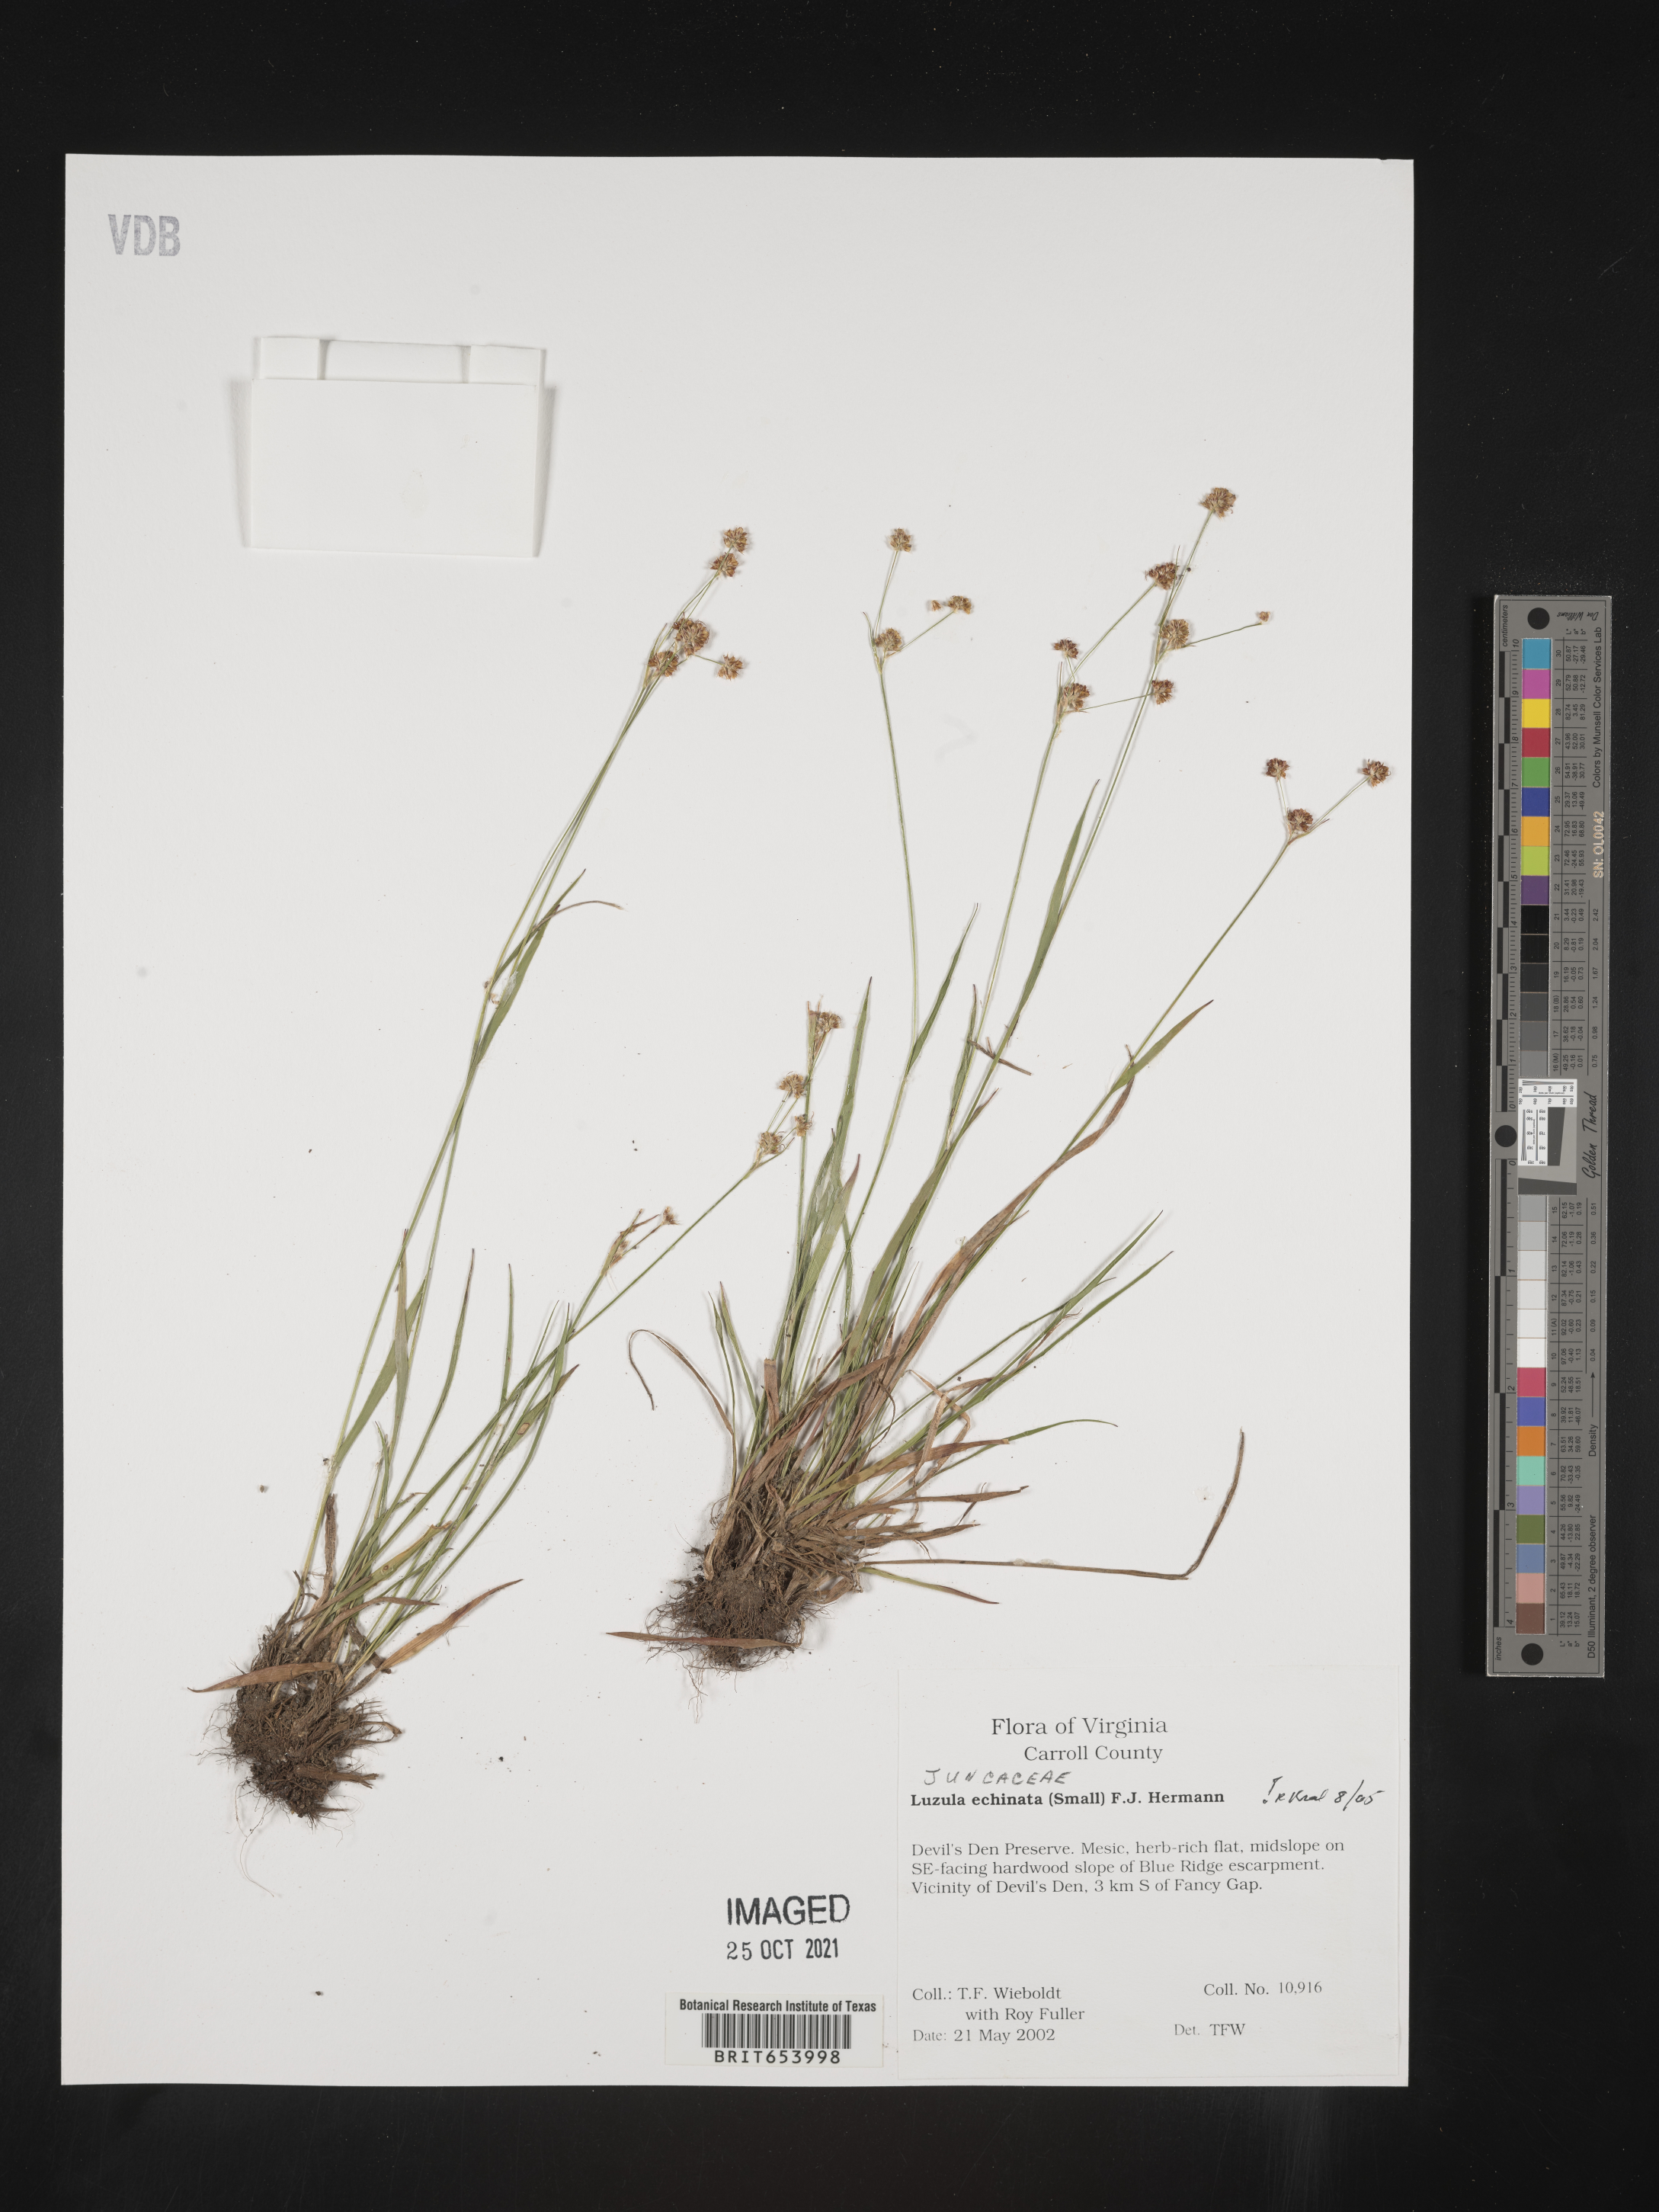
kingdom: Plantae
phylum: Tracheophyta
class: Liliopsida
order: Poales
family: Juncaceae
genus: Luzula
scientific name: Luzula echinata
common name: Hedgehog woodrush
